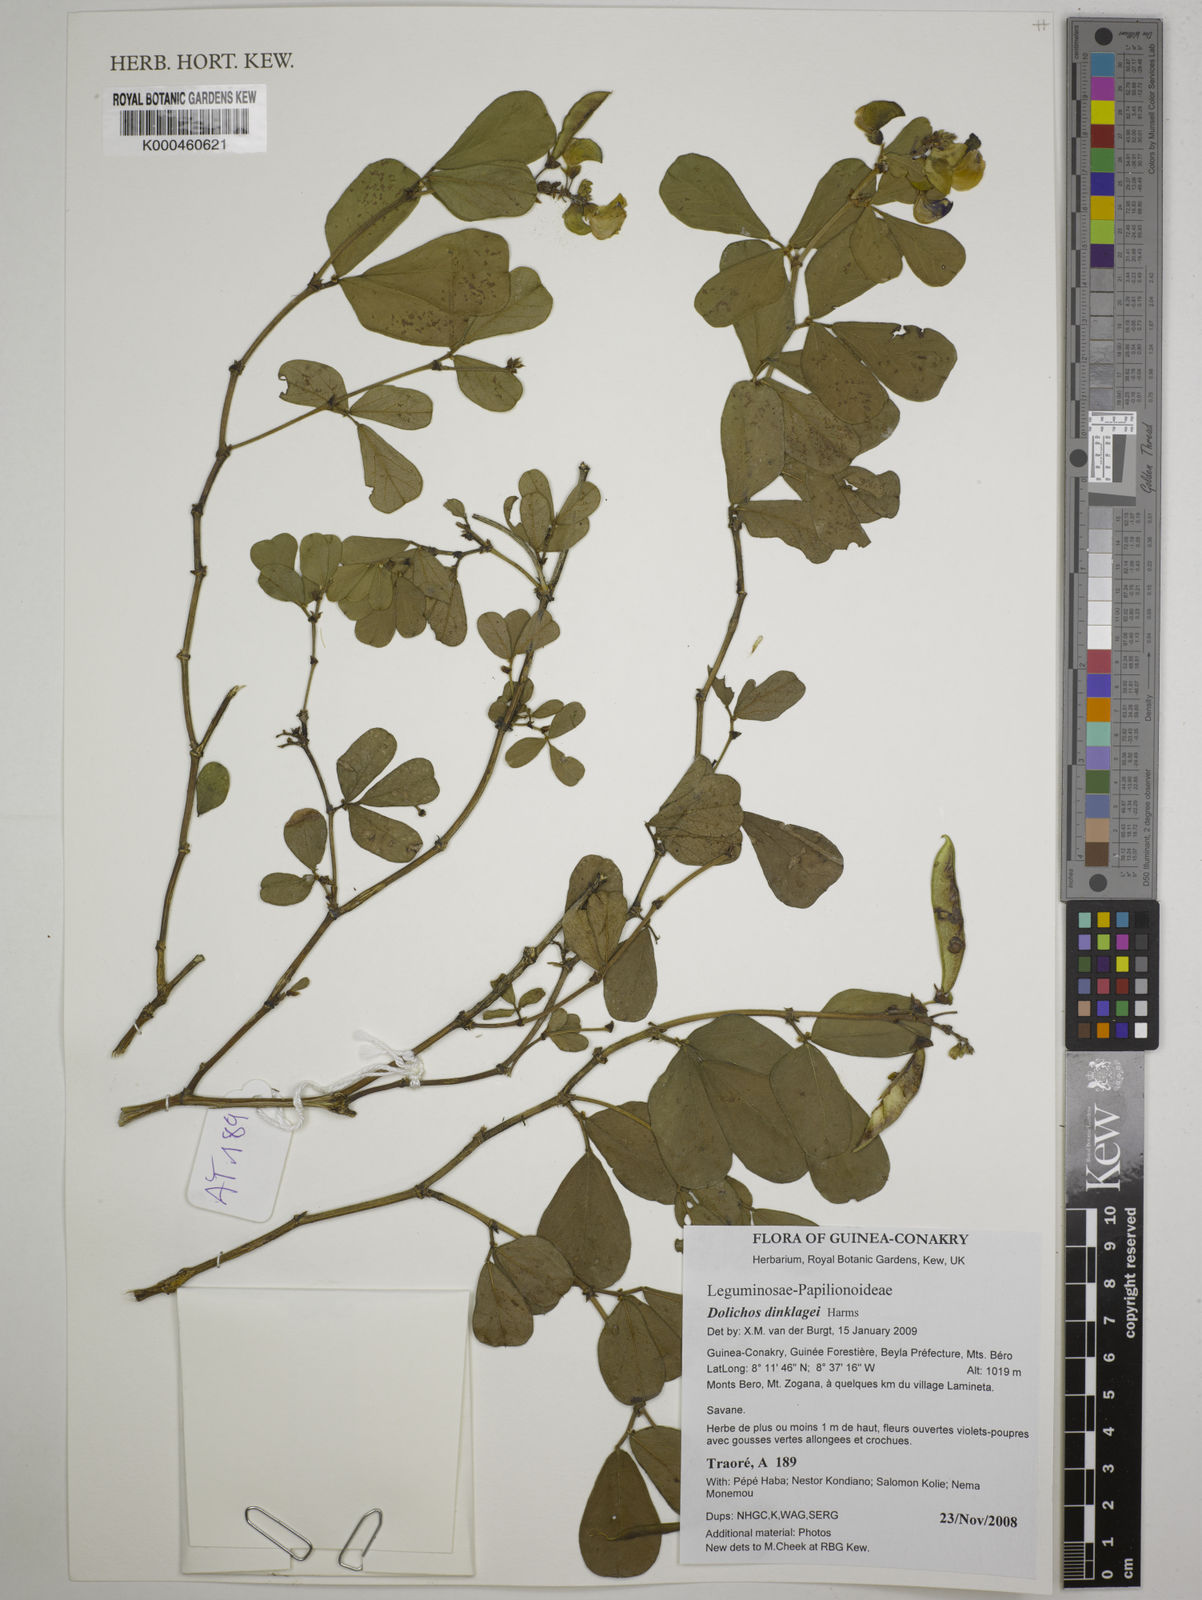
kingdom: Plantae
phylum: Tracheophyta
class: Magnoliopsida
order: Fabales
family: Fabaceae
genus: Dolichos
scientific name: Dolichos dinklagei
